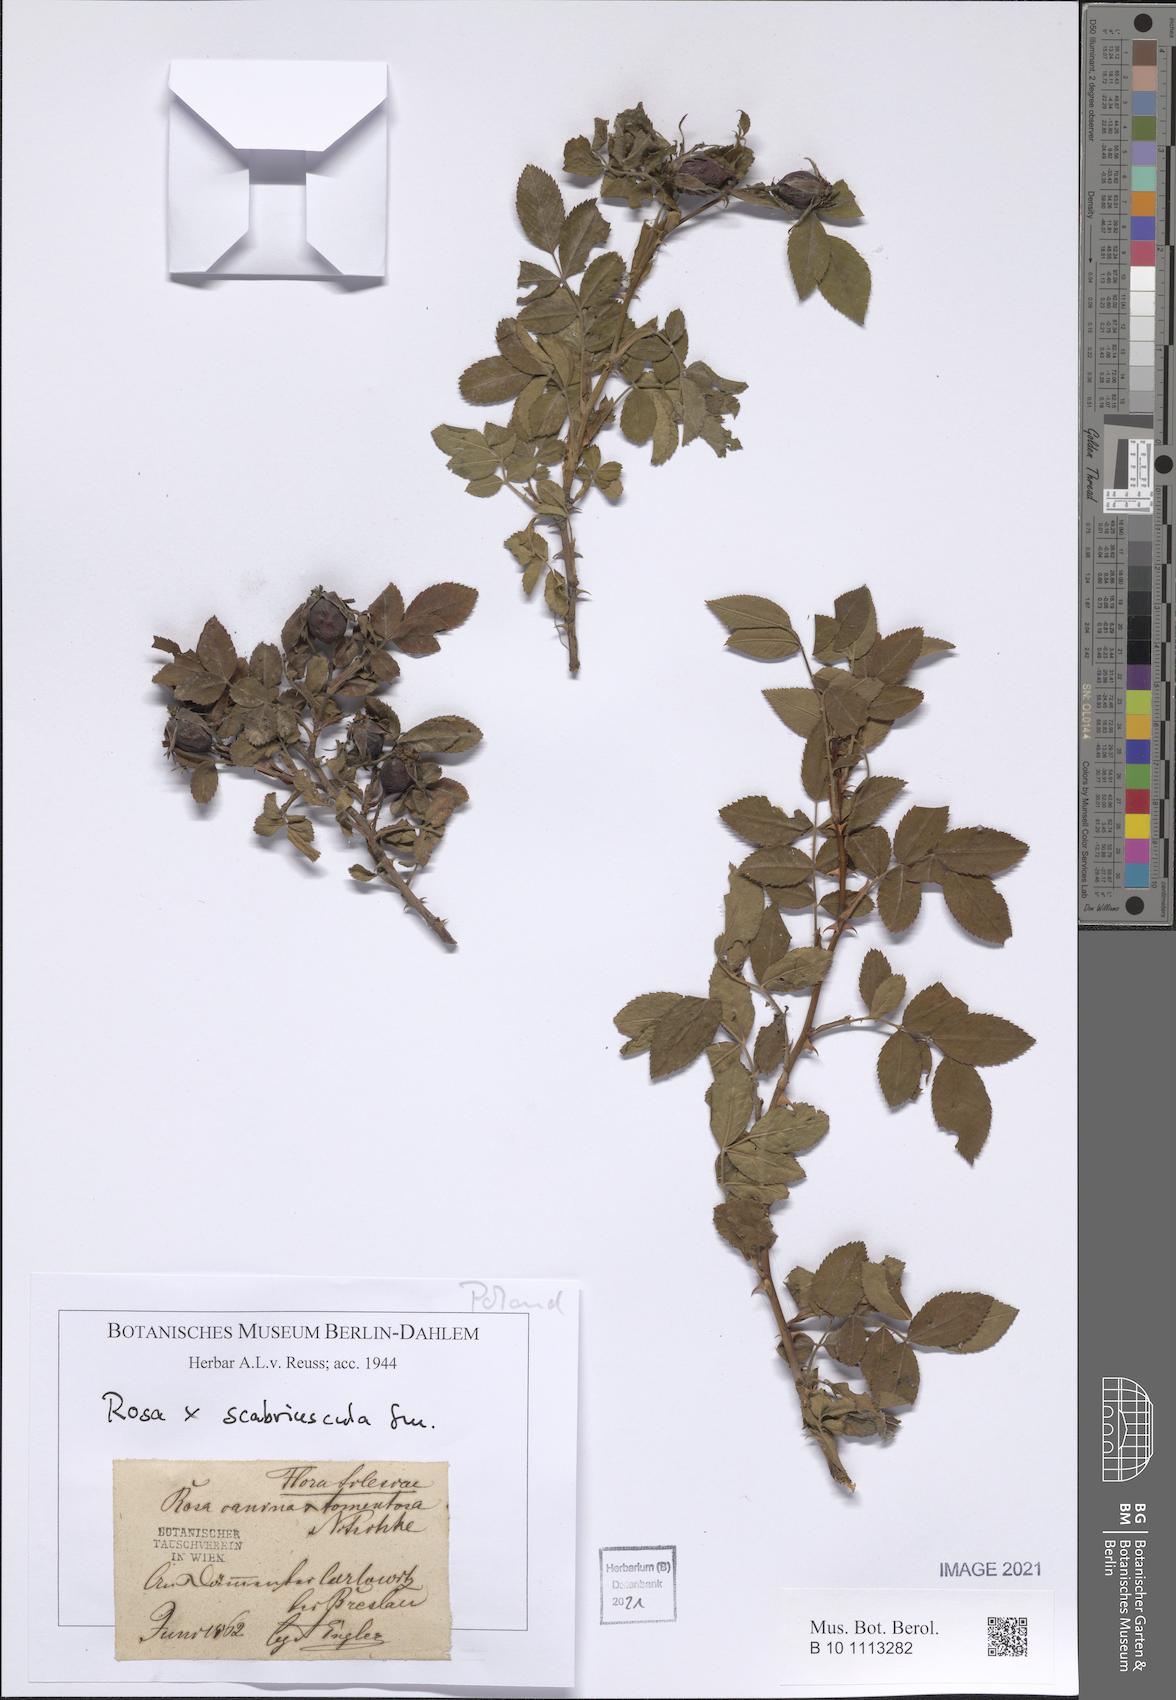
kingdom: Plantae
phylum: Tracheophyta
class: Magnoliopsida
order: Rosales
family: Rosaceae
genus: Rosa
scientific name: Rosa scabriuscula
